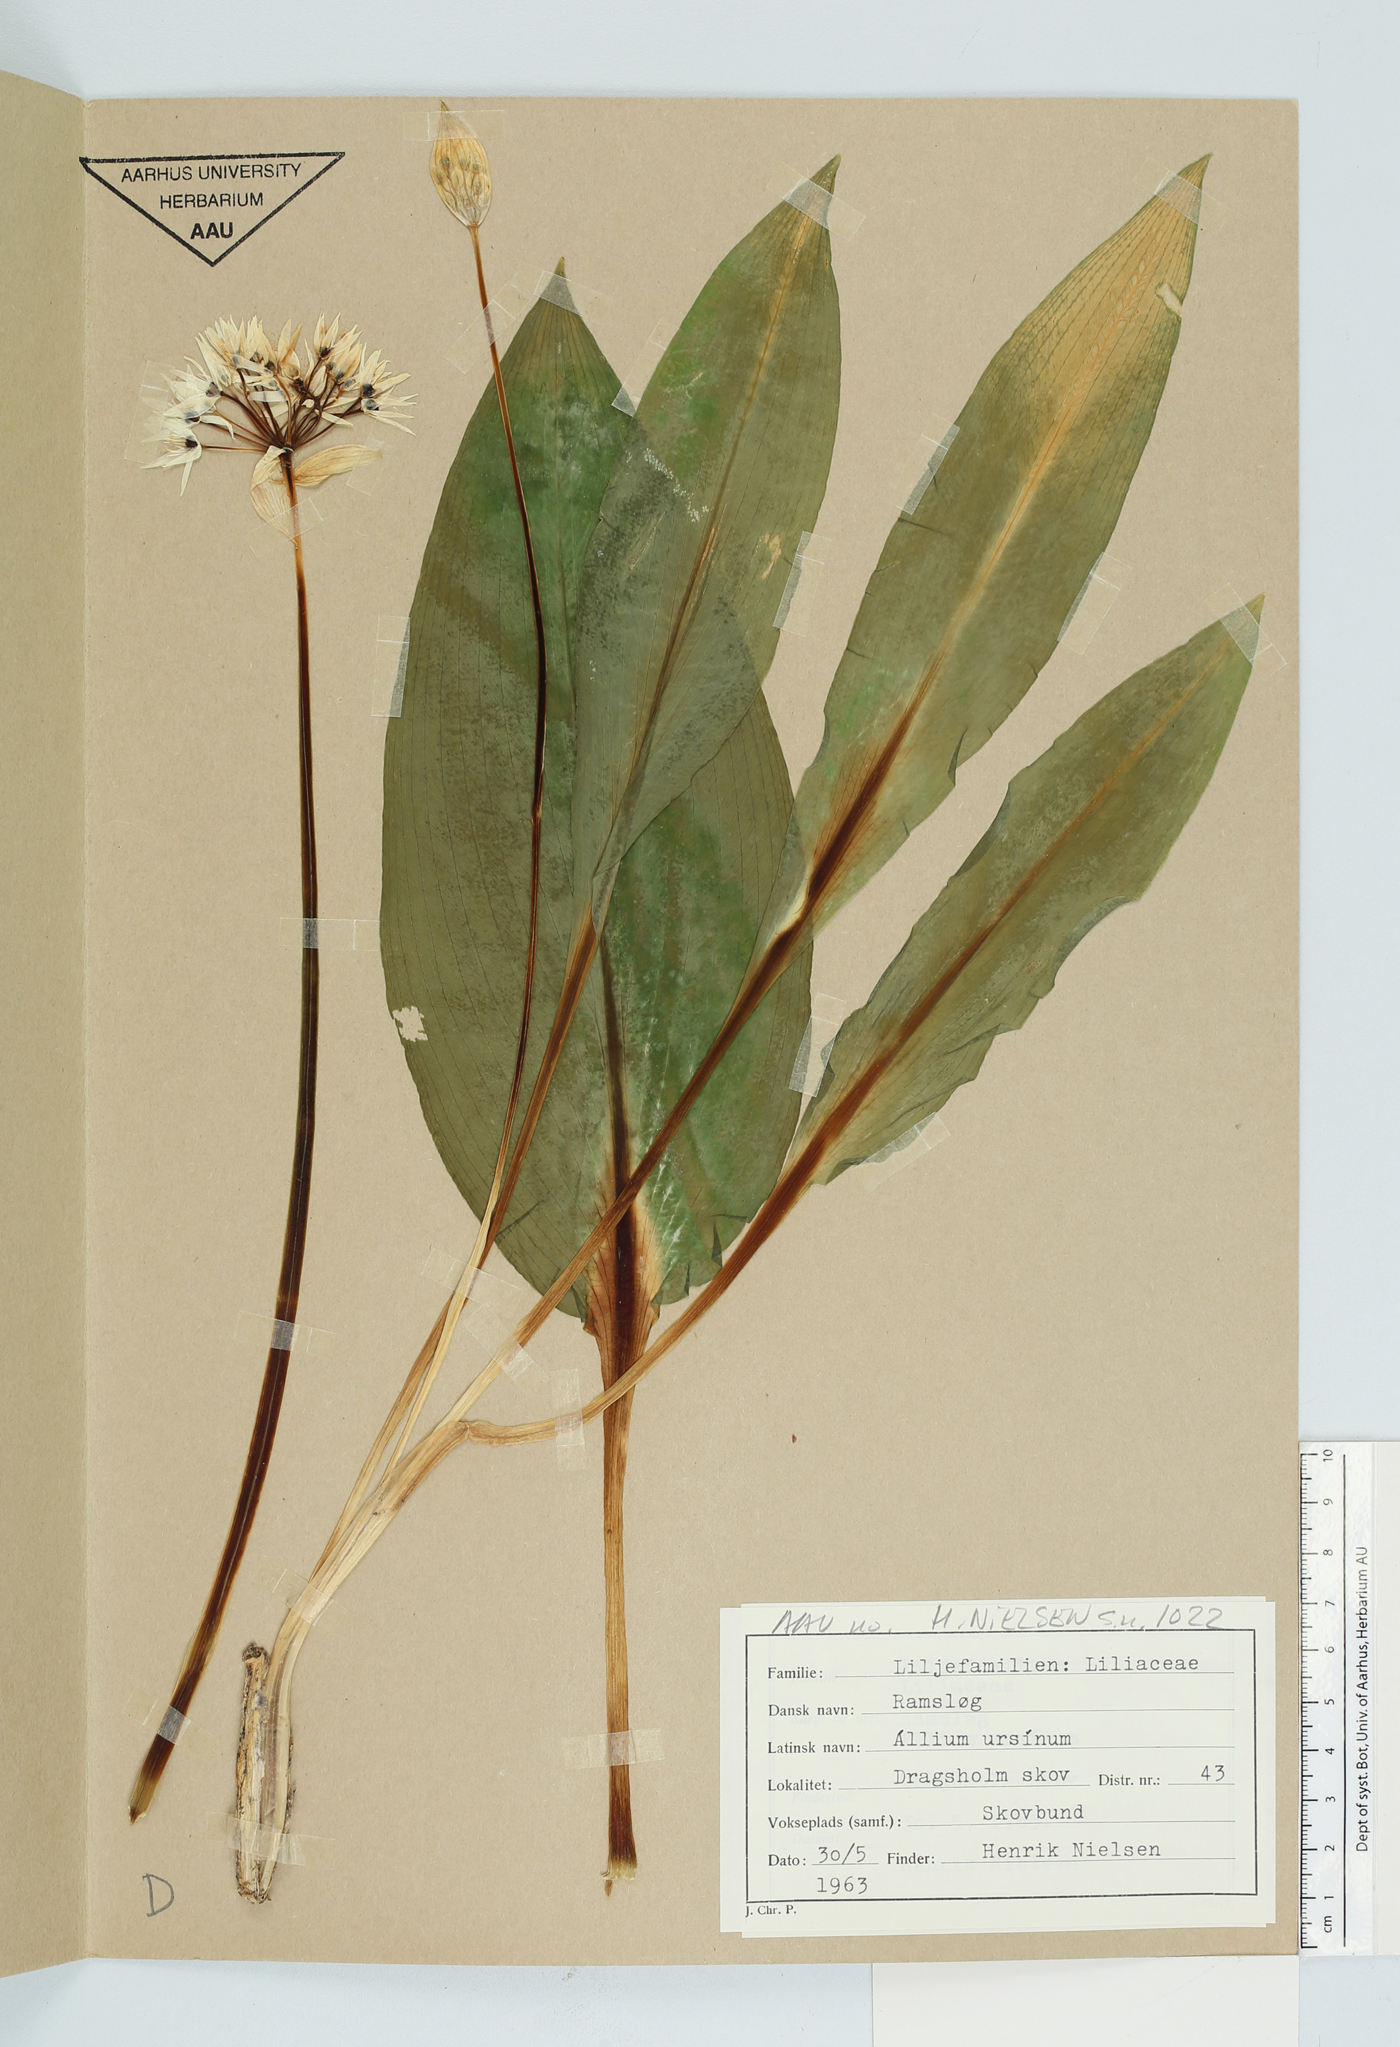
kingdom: Plantae
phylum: Tracheophyta
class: Liliopsida
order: Asparagales
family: Amaryllidaceae
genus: Allium
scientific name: Allium ursinum
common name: Ramsons
